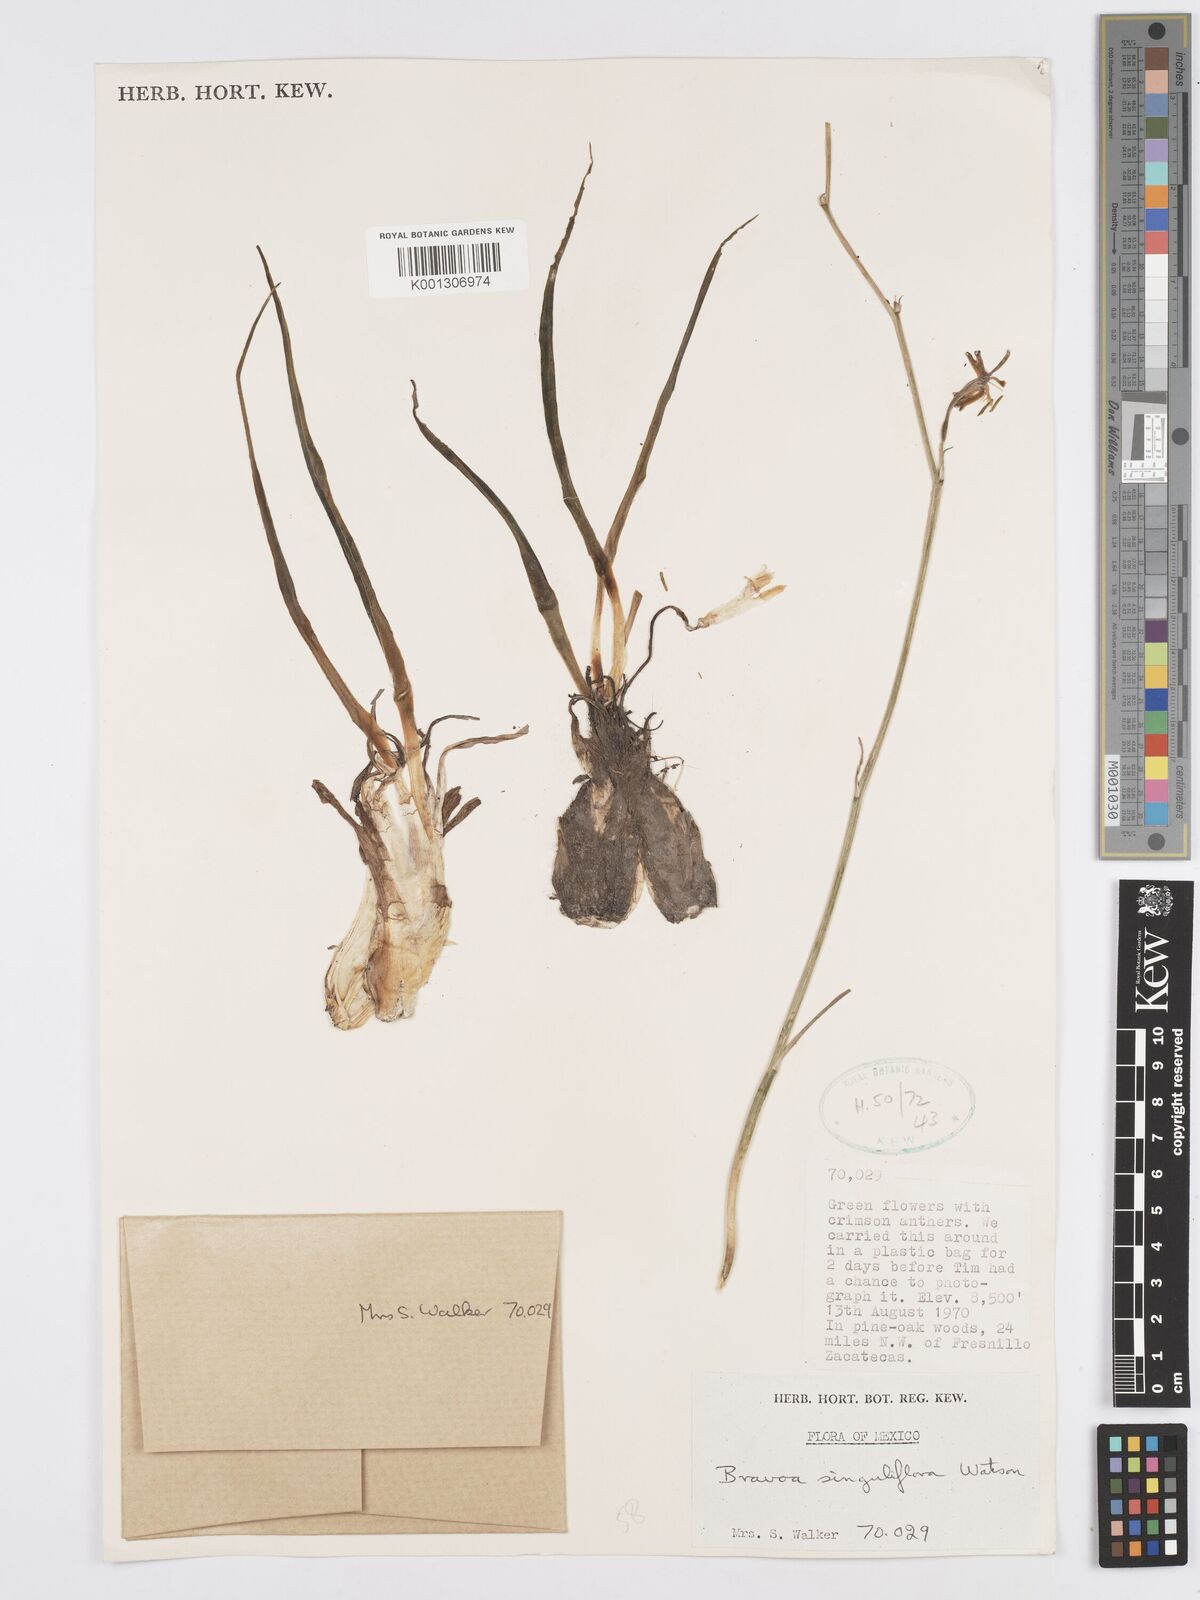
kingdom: Plantae
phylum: Tracheophyta
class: Liliopsida
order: Asparagales
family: Asparagaceae
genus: Agave
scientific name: Agave singuliflora
